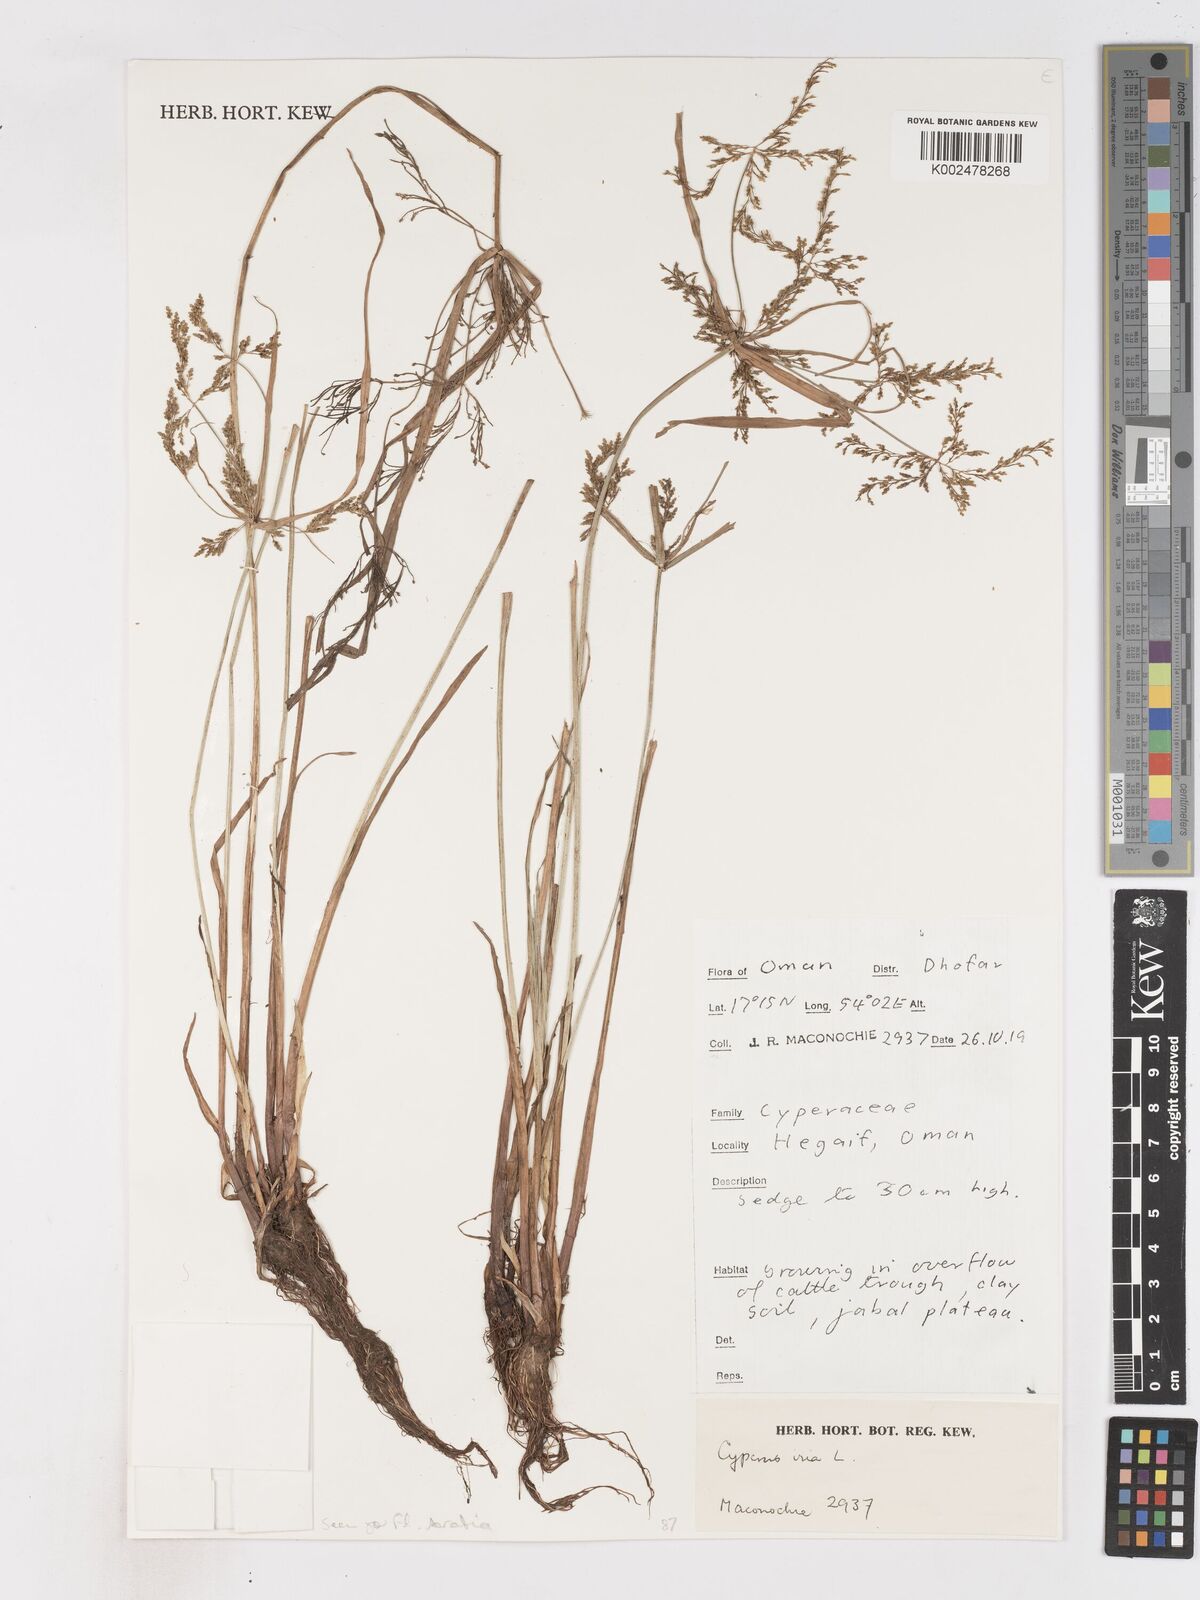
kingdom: Plantae
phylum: Tracheophyta
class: Liliopsida
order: Poales
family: Cyperaceae
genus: Cyperus
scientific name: Cyperus iria
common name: Ricefield flatsedge
